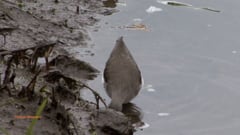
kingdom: Animalia
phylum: Chordata
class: Aves
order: Charadriiformes
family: Scolopacidae
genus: Tringa
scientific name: Tringa ochropus
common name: Green sandpiper
